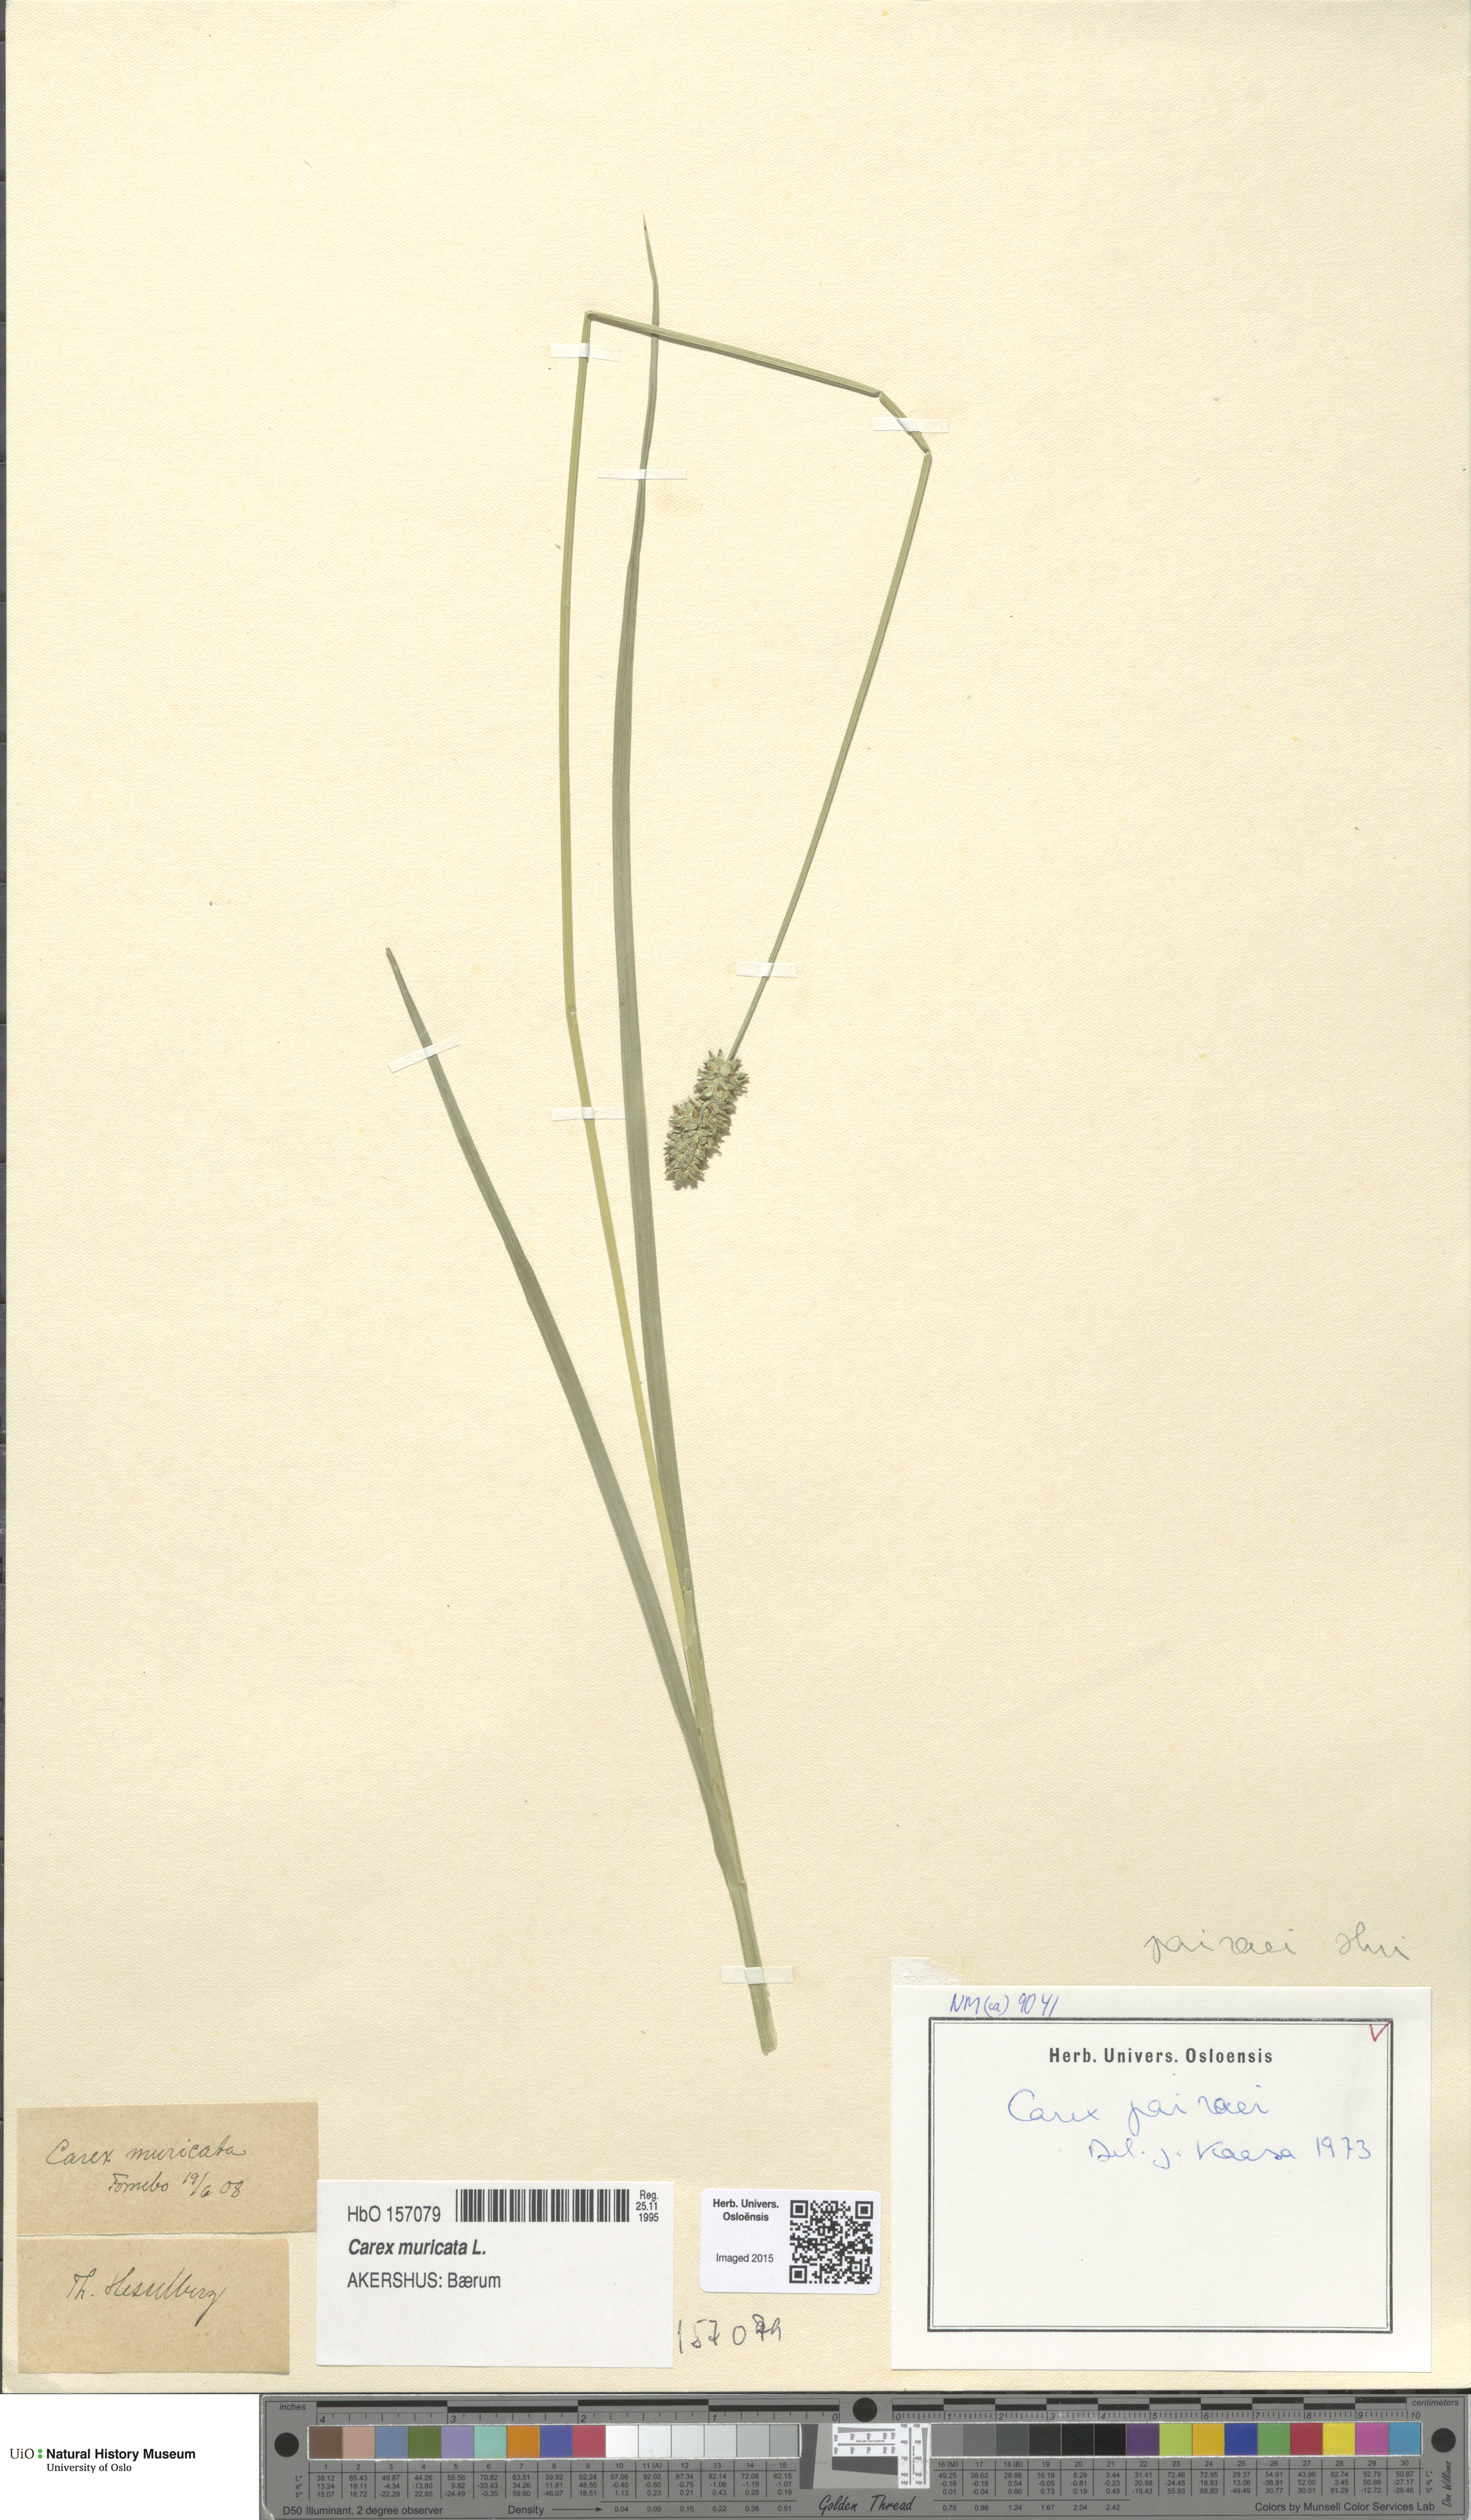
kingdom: Plantae
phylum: Tracheophyta
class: Liliopsida
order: Poales
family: Cyperaceae
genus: Carex
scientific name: Carex pairae
